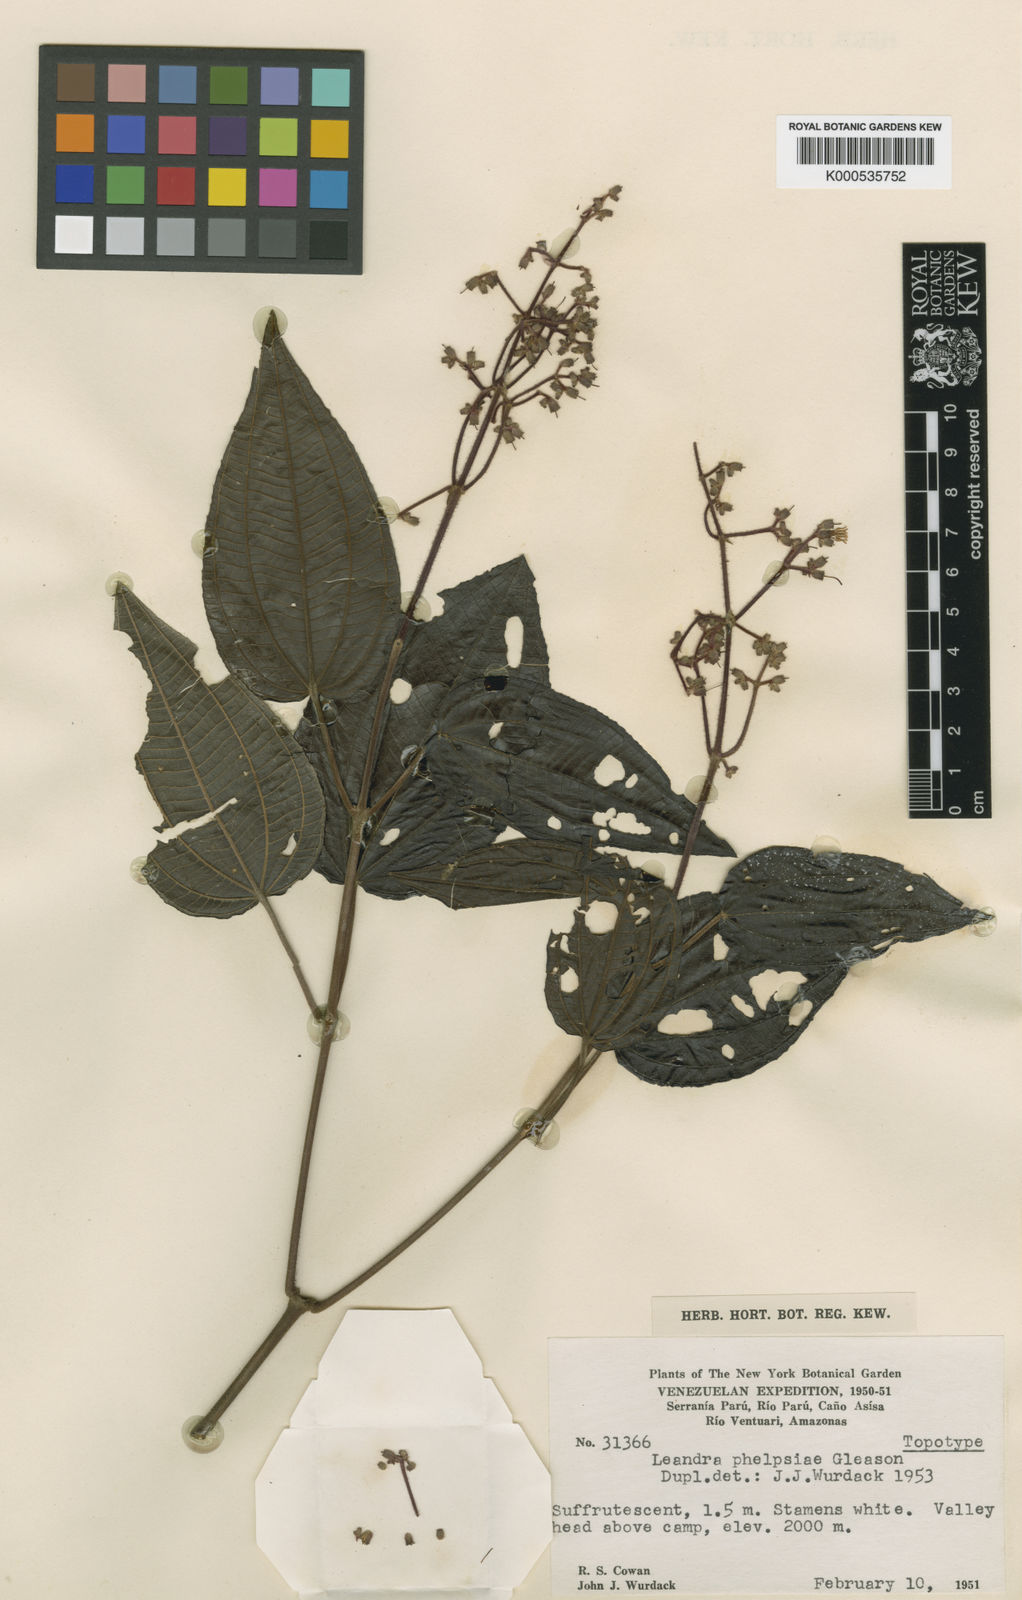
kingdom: Plantae
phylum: Tracheophyta
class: Magnoliopsida
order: Myrtales
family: Melastomataceae
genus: Miconia
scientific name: Miconia phelpsiae
